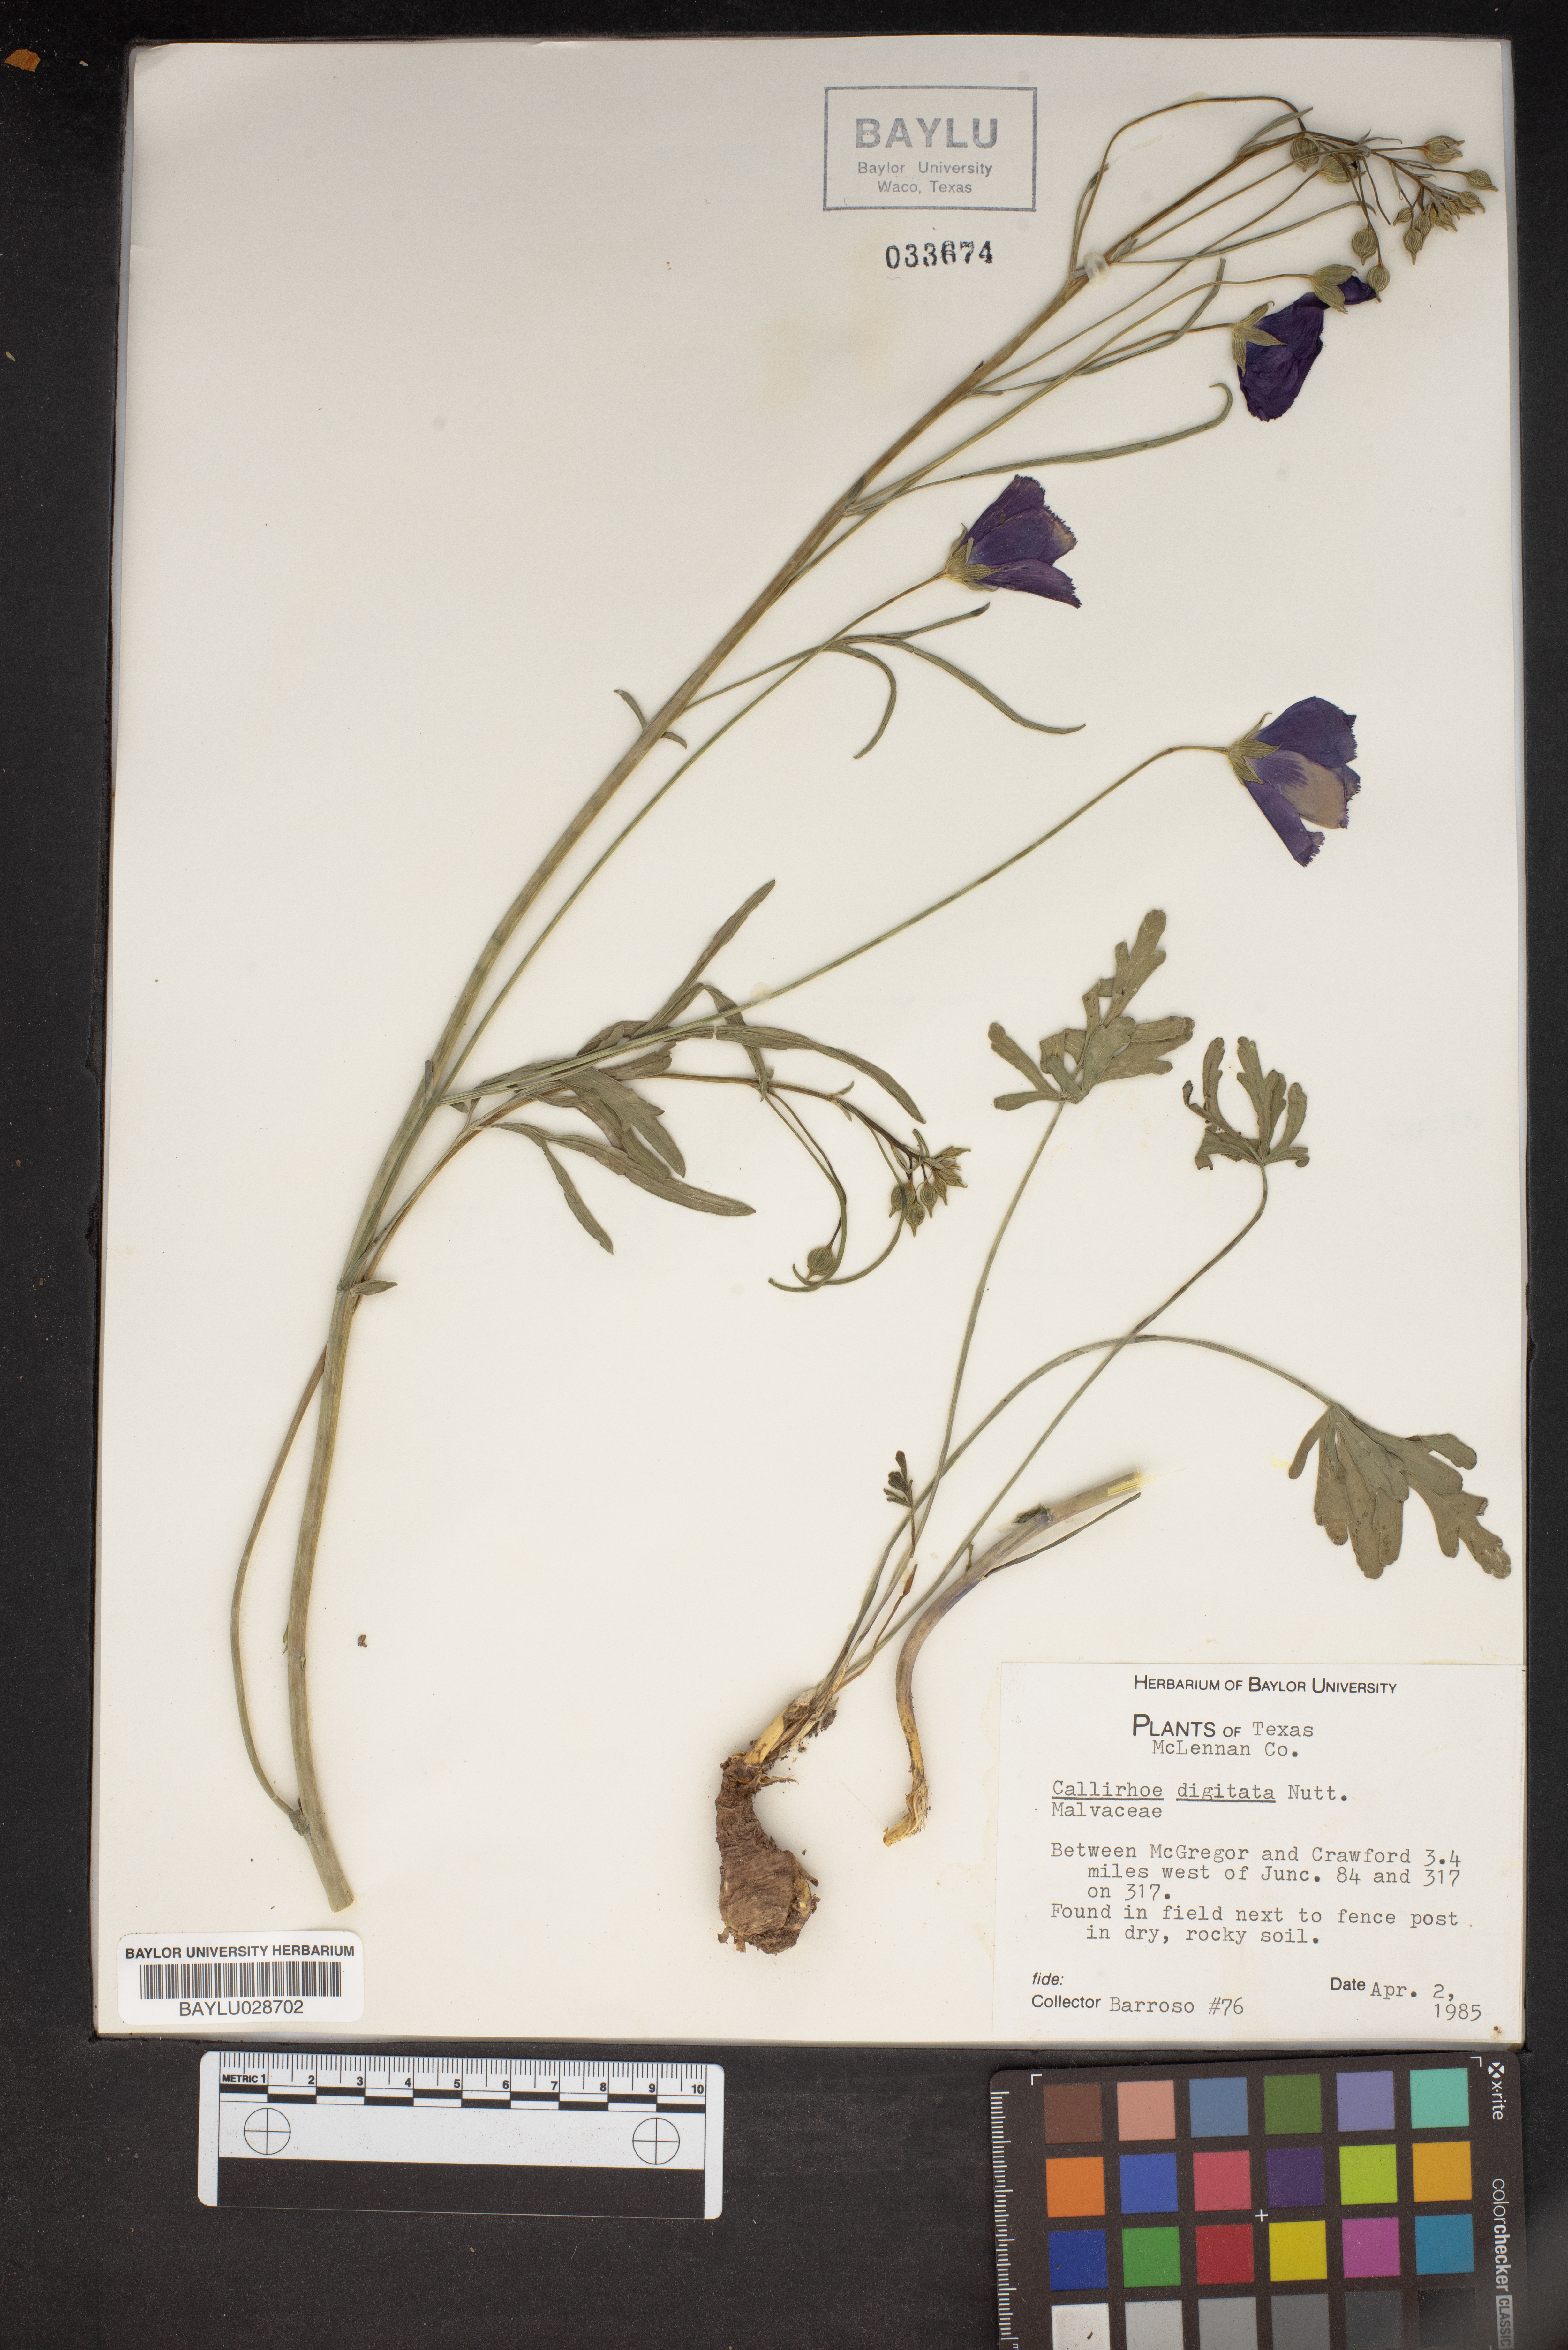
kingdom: Plantae
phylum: Tracheophyta
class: Magnoliopsida
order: Malvales
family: Malvaceae
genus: Callirhoe
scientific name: Callirhoe digitata
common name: Finger poppy-mallow
